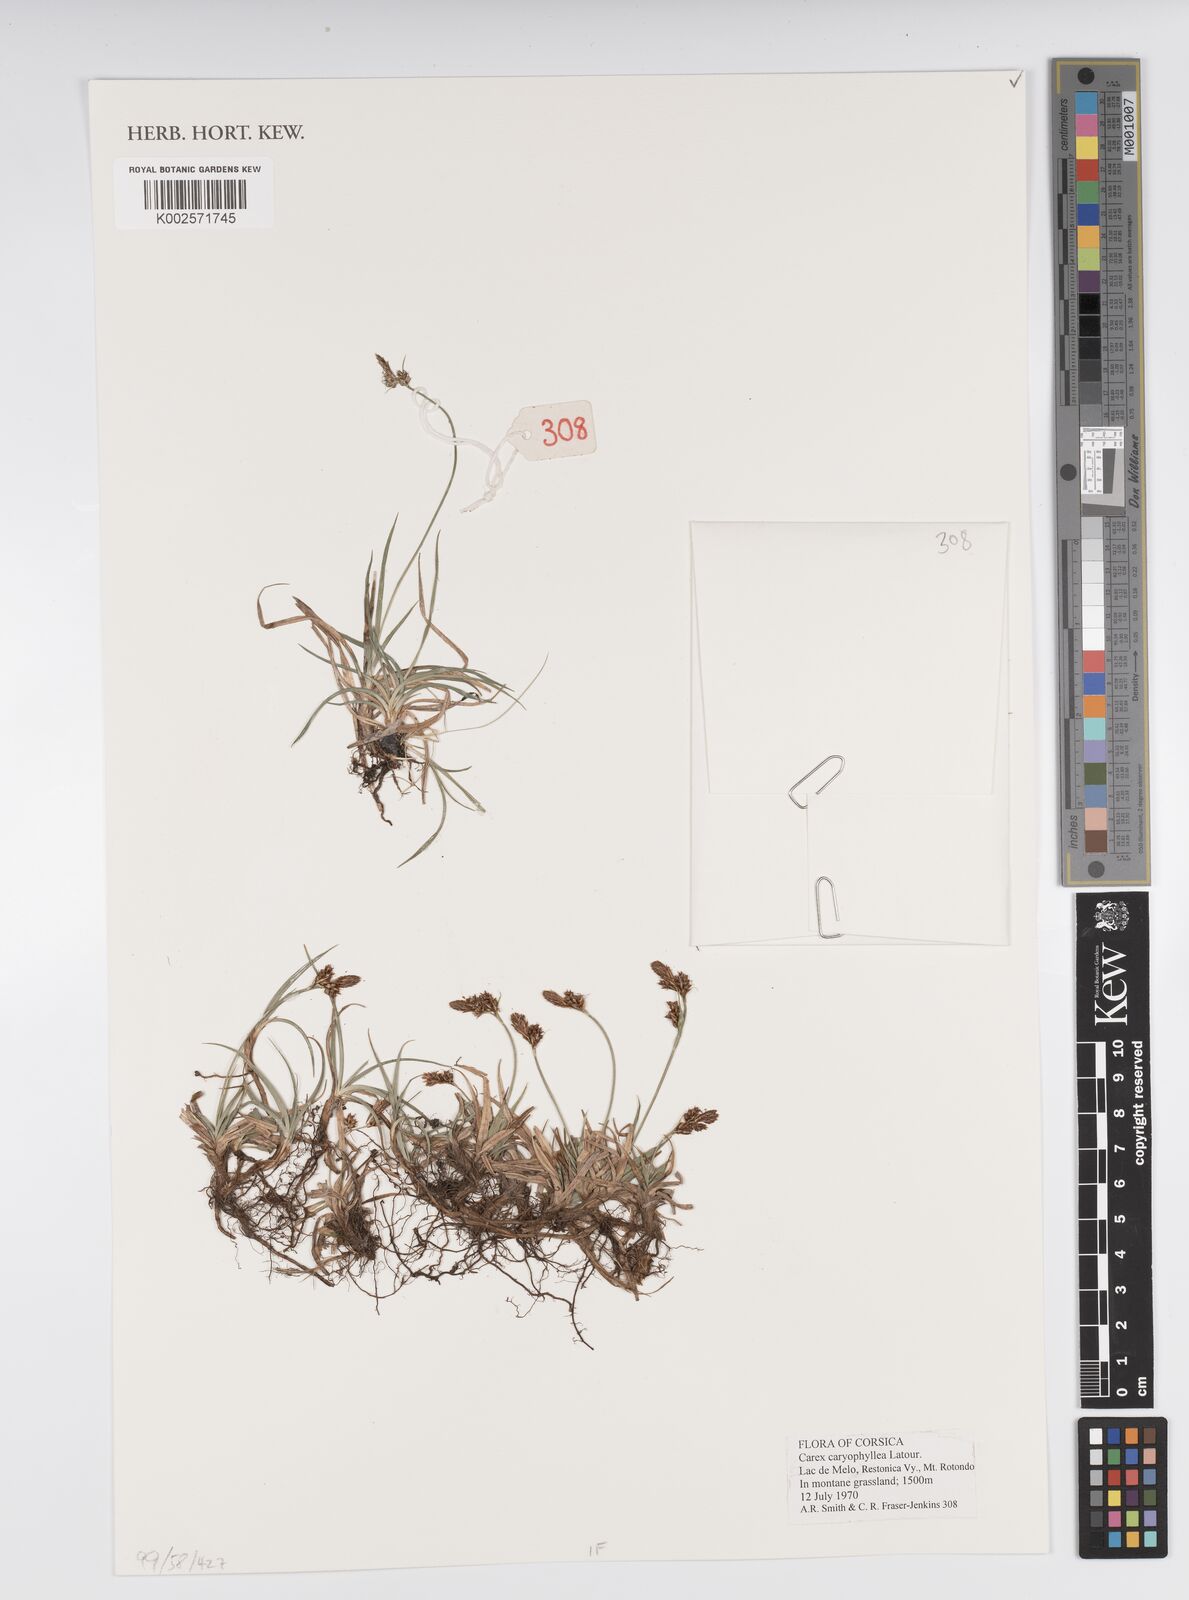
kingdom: Plantae
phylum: Tracheophyta
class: Liliopsida
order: Poales
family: Cyperaceae
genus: Carex
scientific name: Carex caryophyllea
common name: Spring sedge
